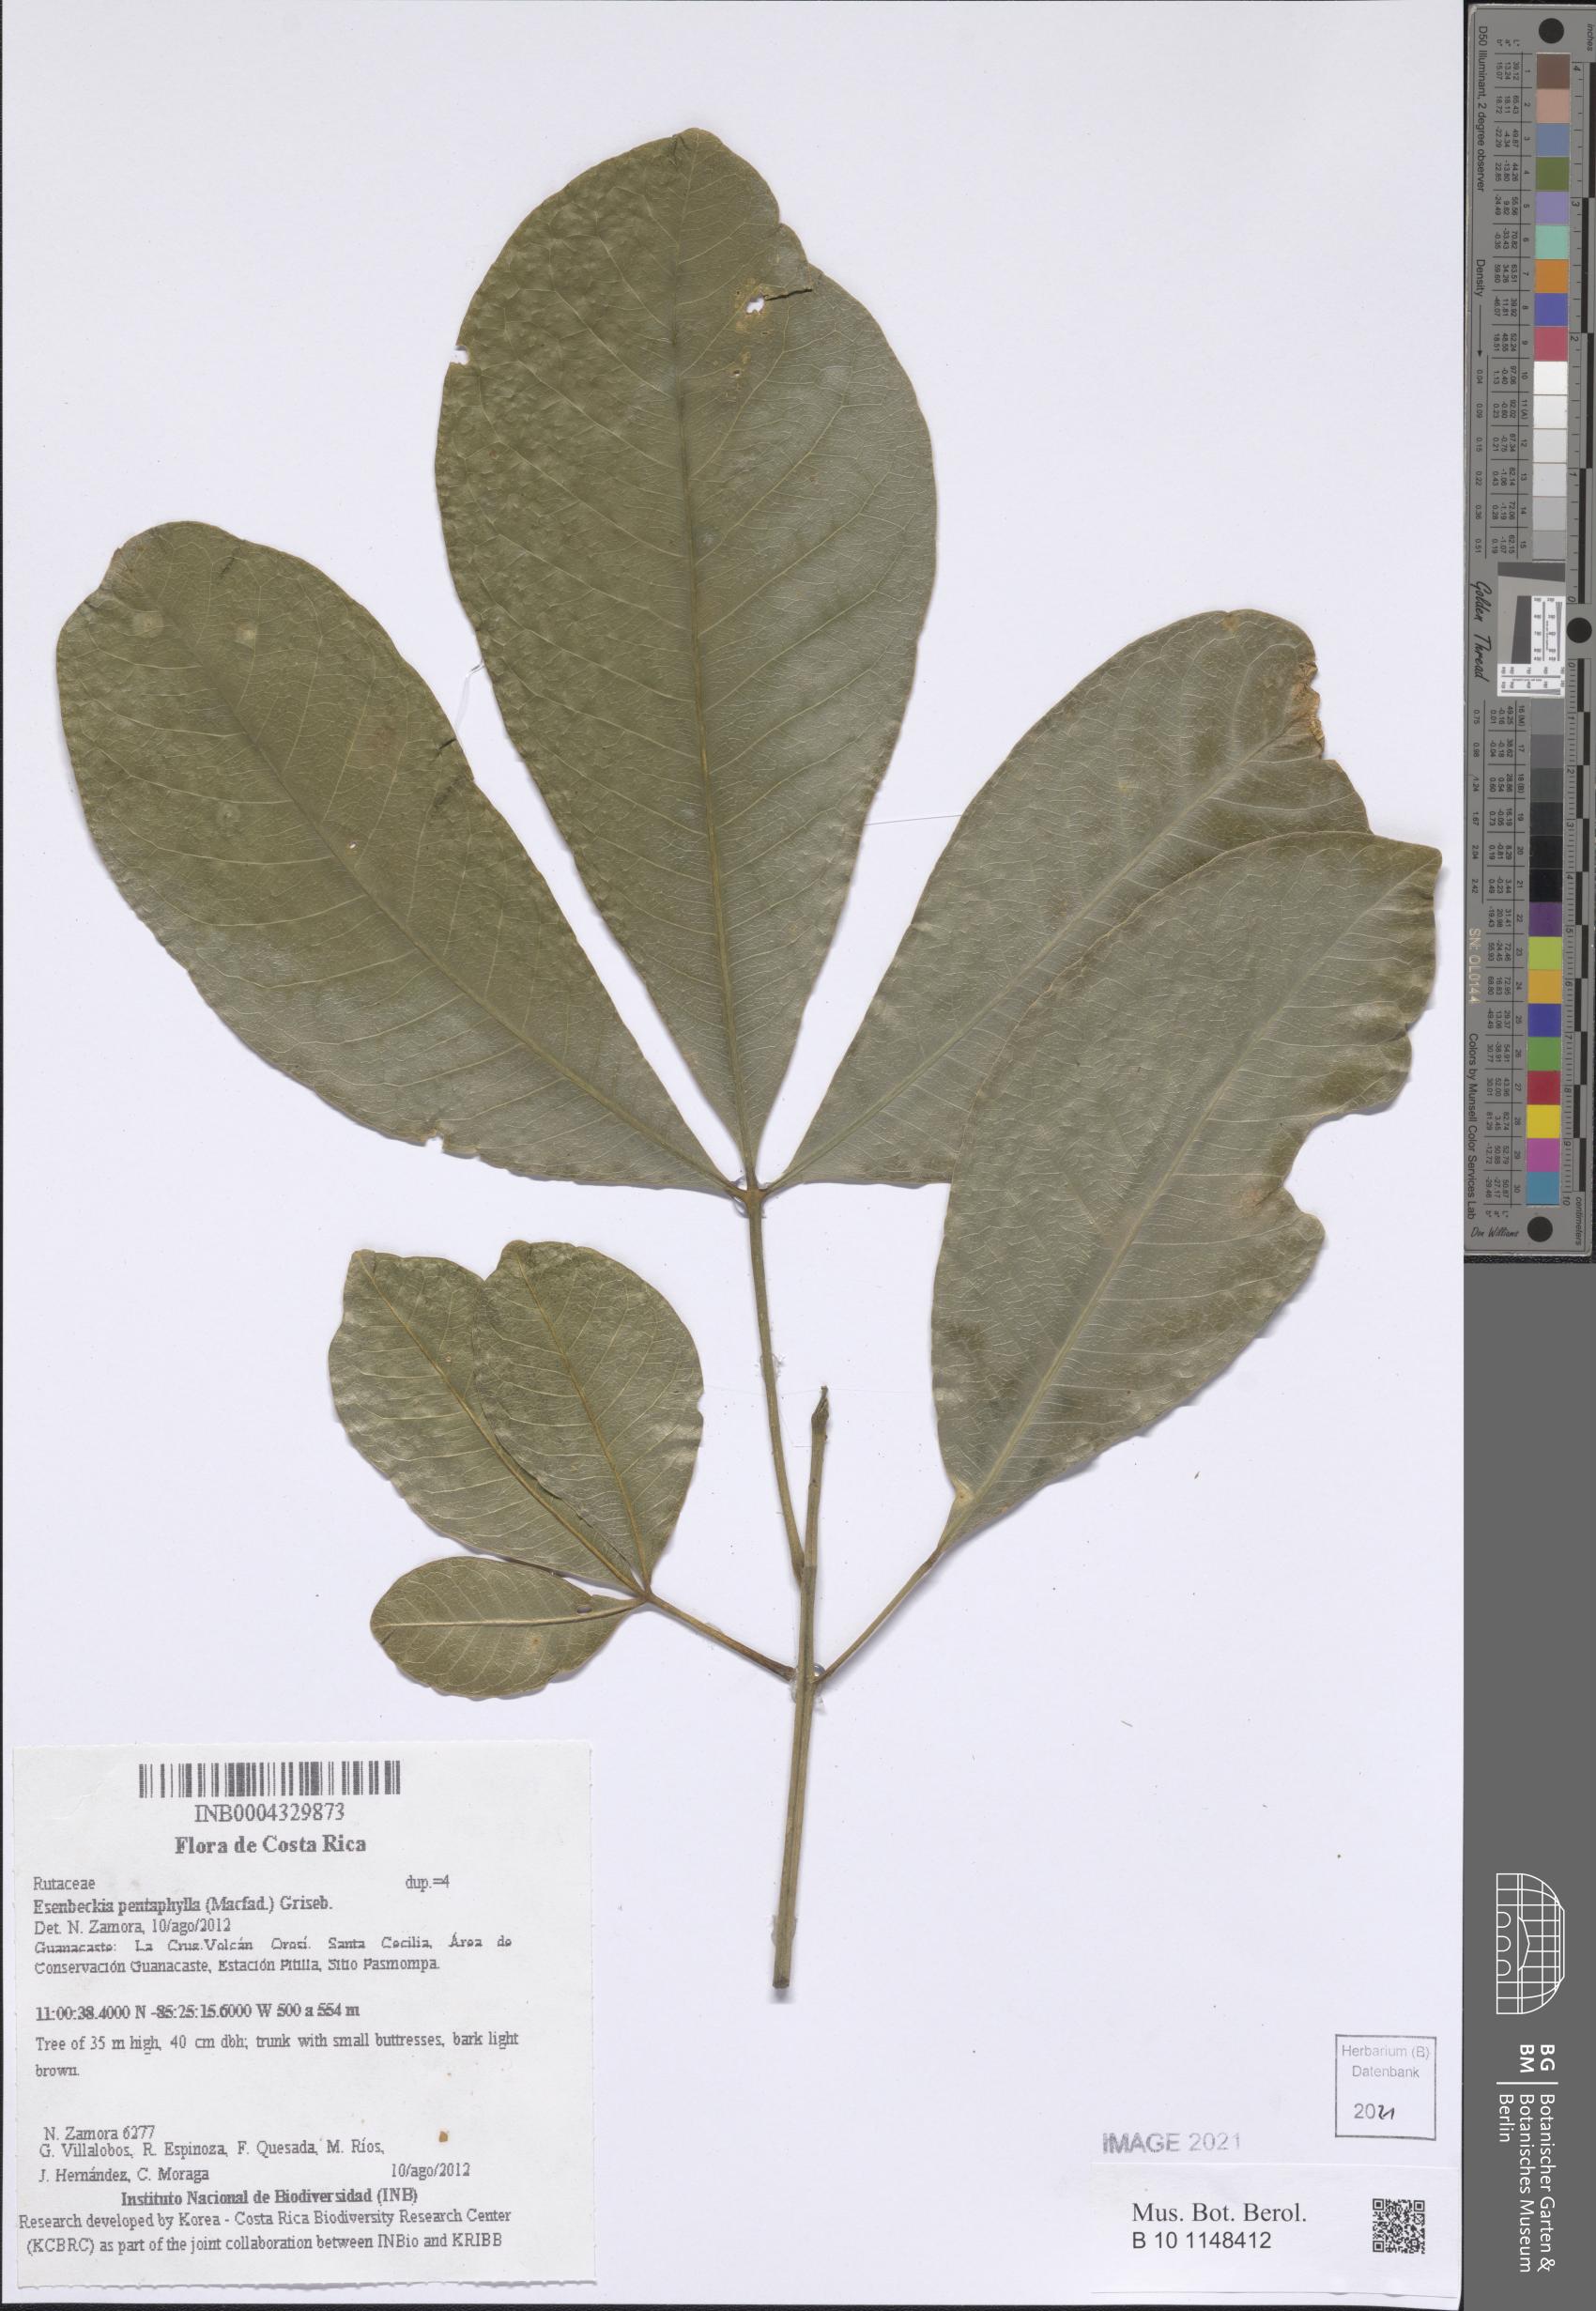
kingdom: Plantae
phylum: Tracheophyta
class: Magnoliopsida
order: Sapindales
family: Rutaceae
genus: Esenbeckia
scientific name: Esenbeckia pentaphylla
